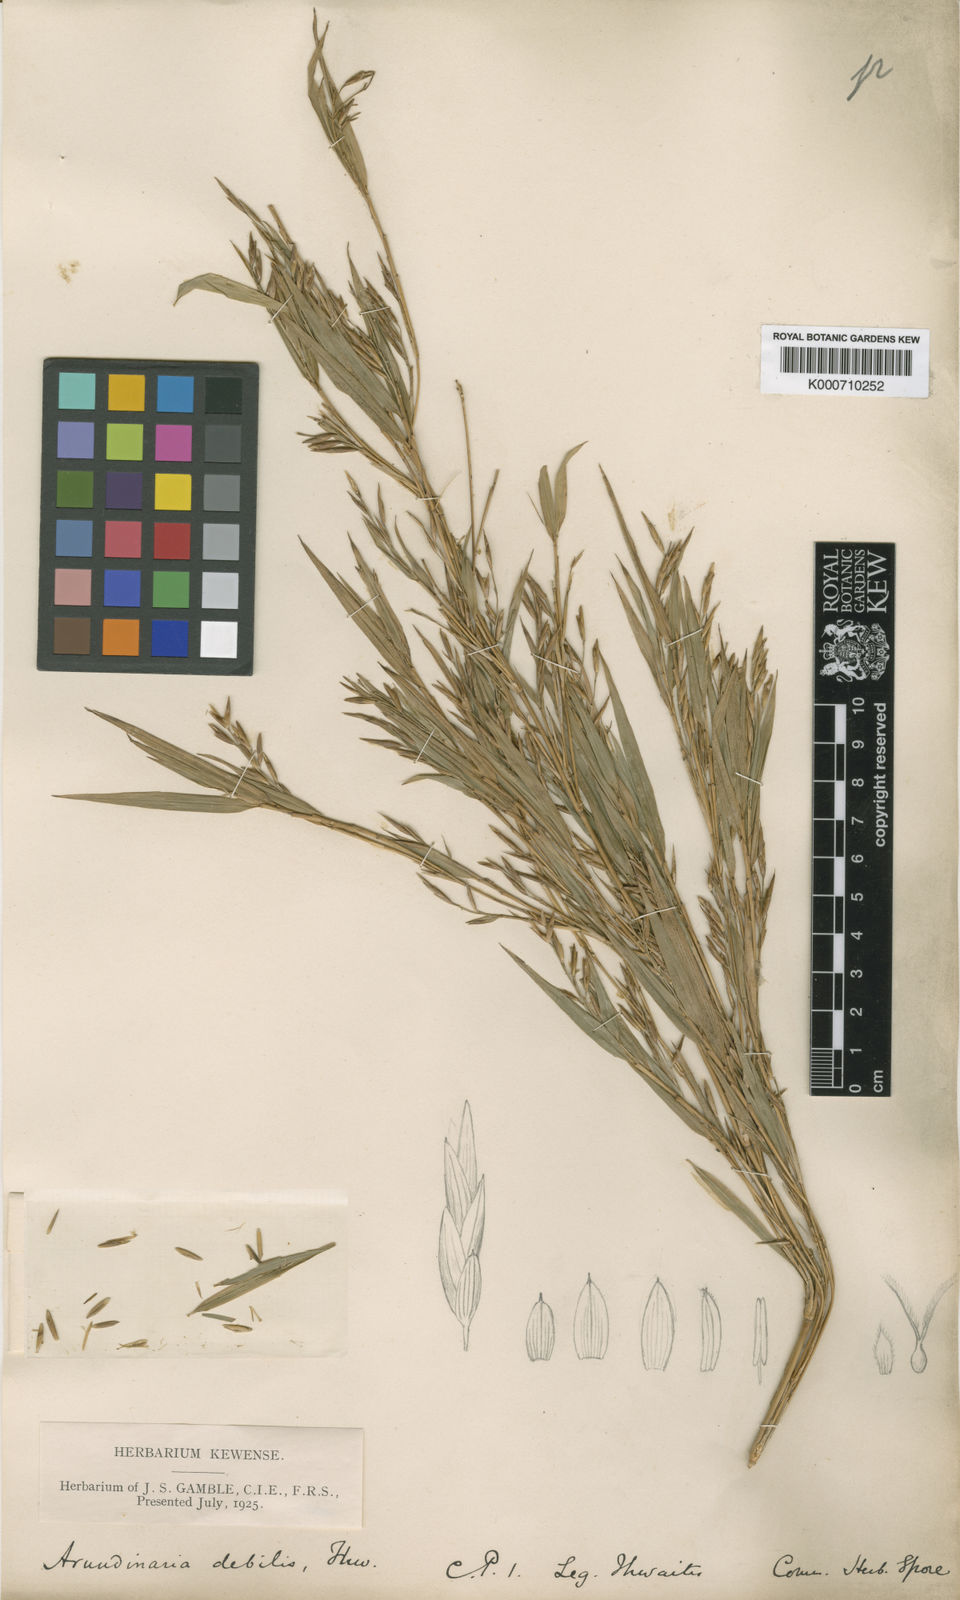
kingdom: Plantae
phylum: Tracheophyta
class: Liliopsida
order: Poales
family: Poaceae
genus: Kuruna
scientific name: Kuruna debilis
